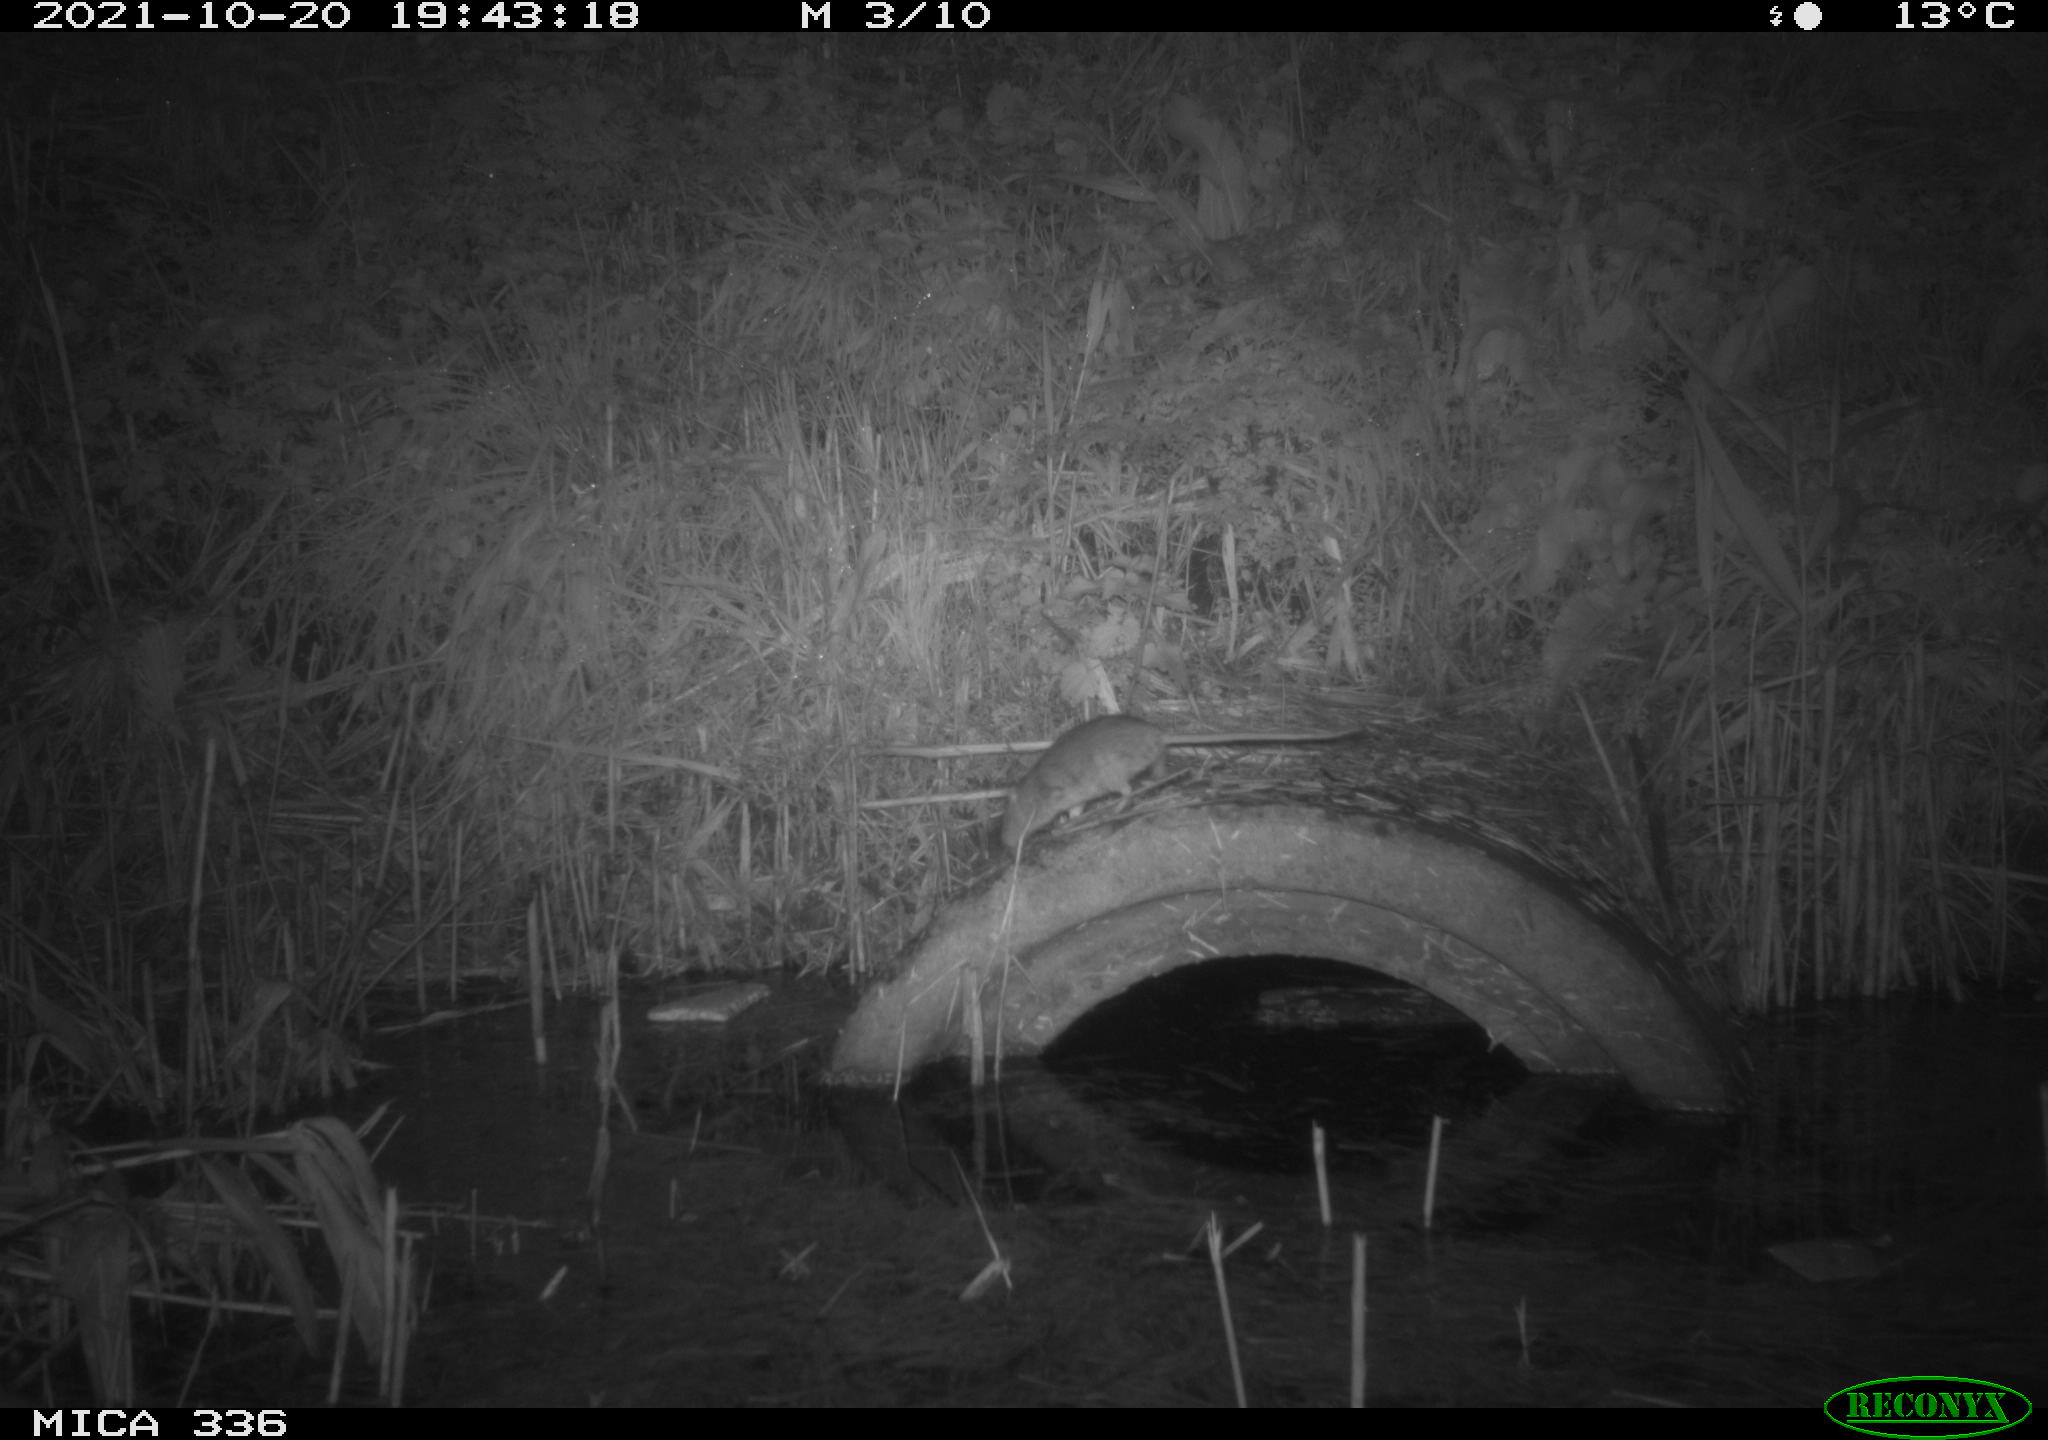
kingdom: Animalia
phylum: Chordata
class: Mammalia
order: Rodentia
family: Muridae
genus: Rattus
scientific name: Rattus norvegicus
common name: Brown rat
